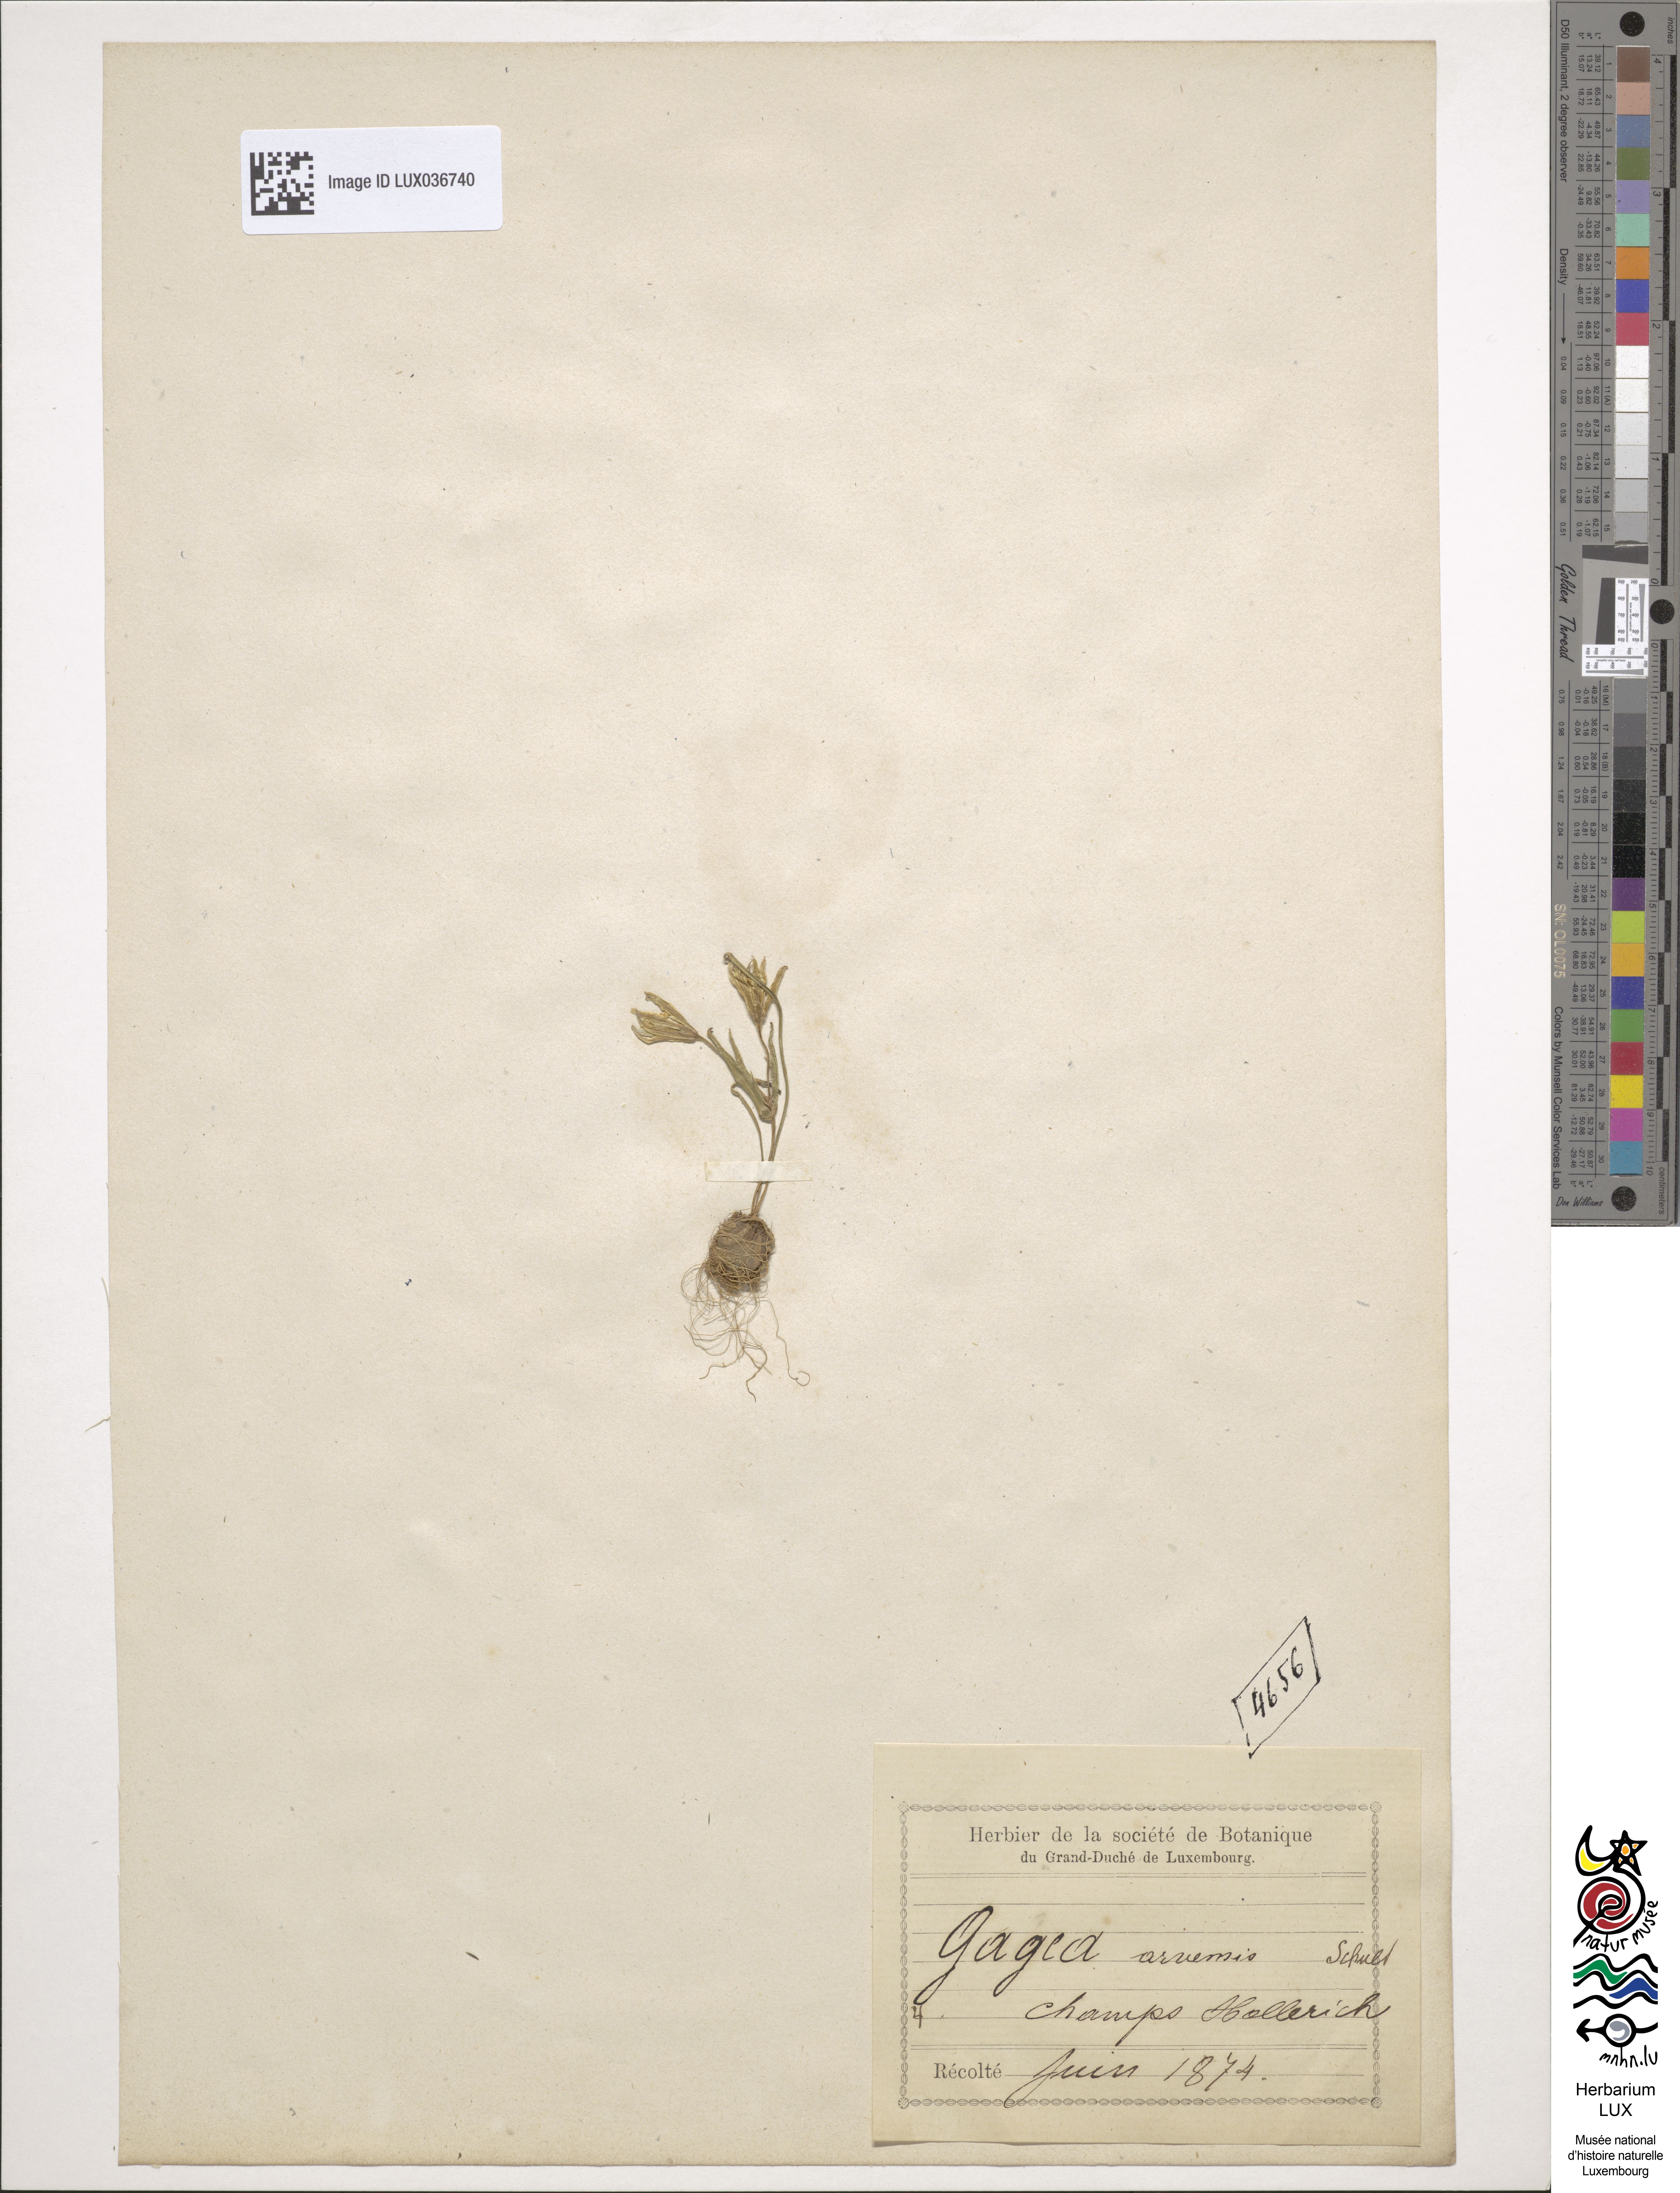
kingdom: Plantae
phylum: Tracheophyta
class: Liliopsida
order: Liliales
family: Liliaceae
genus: Gagea
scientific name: Gagea minima
